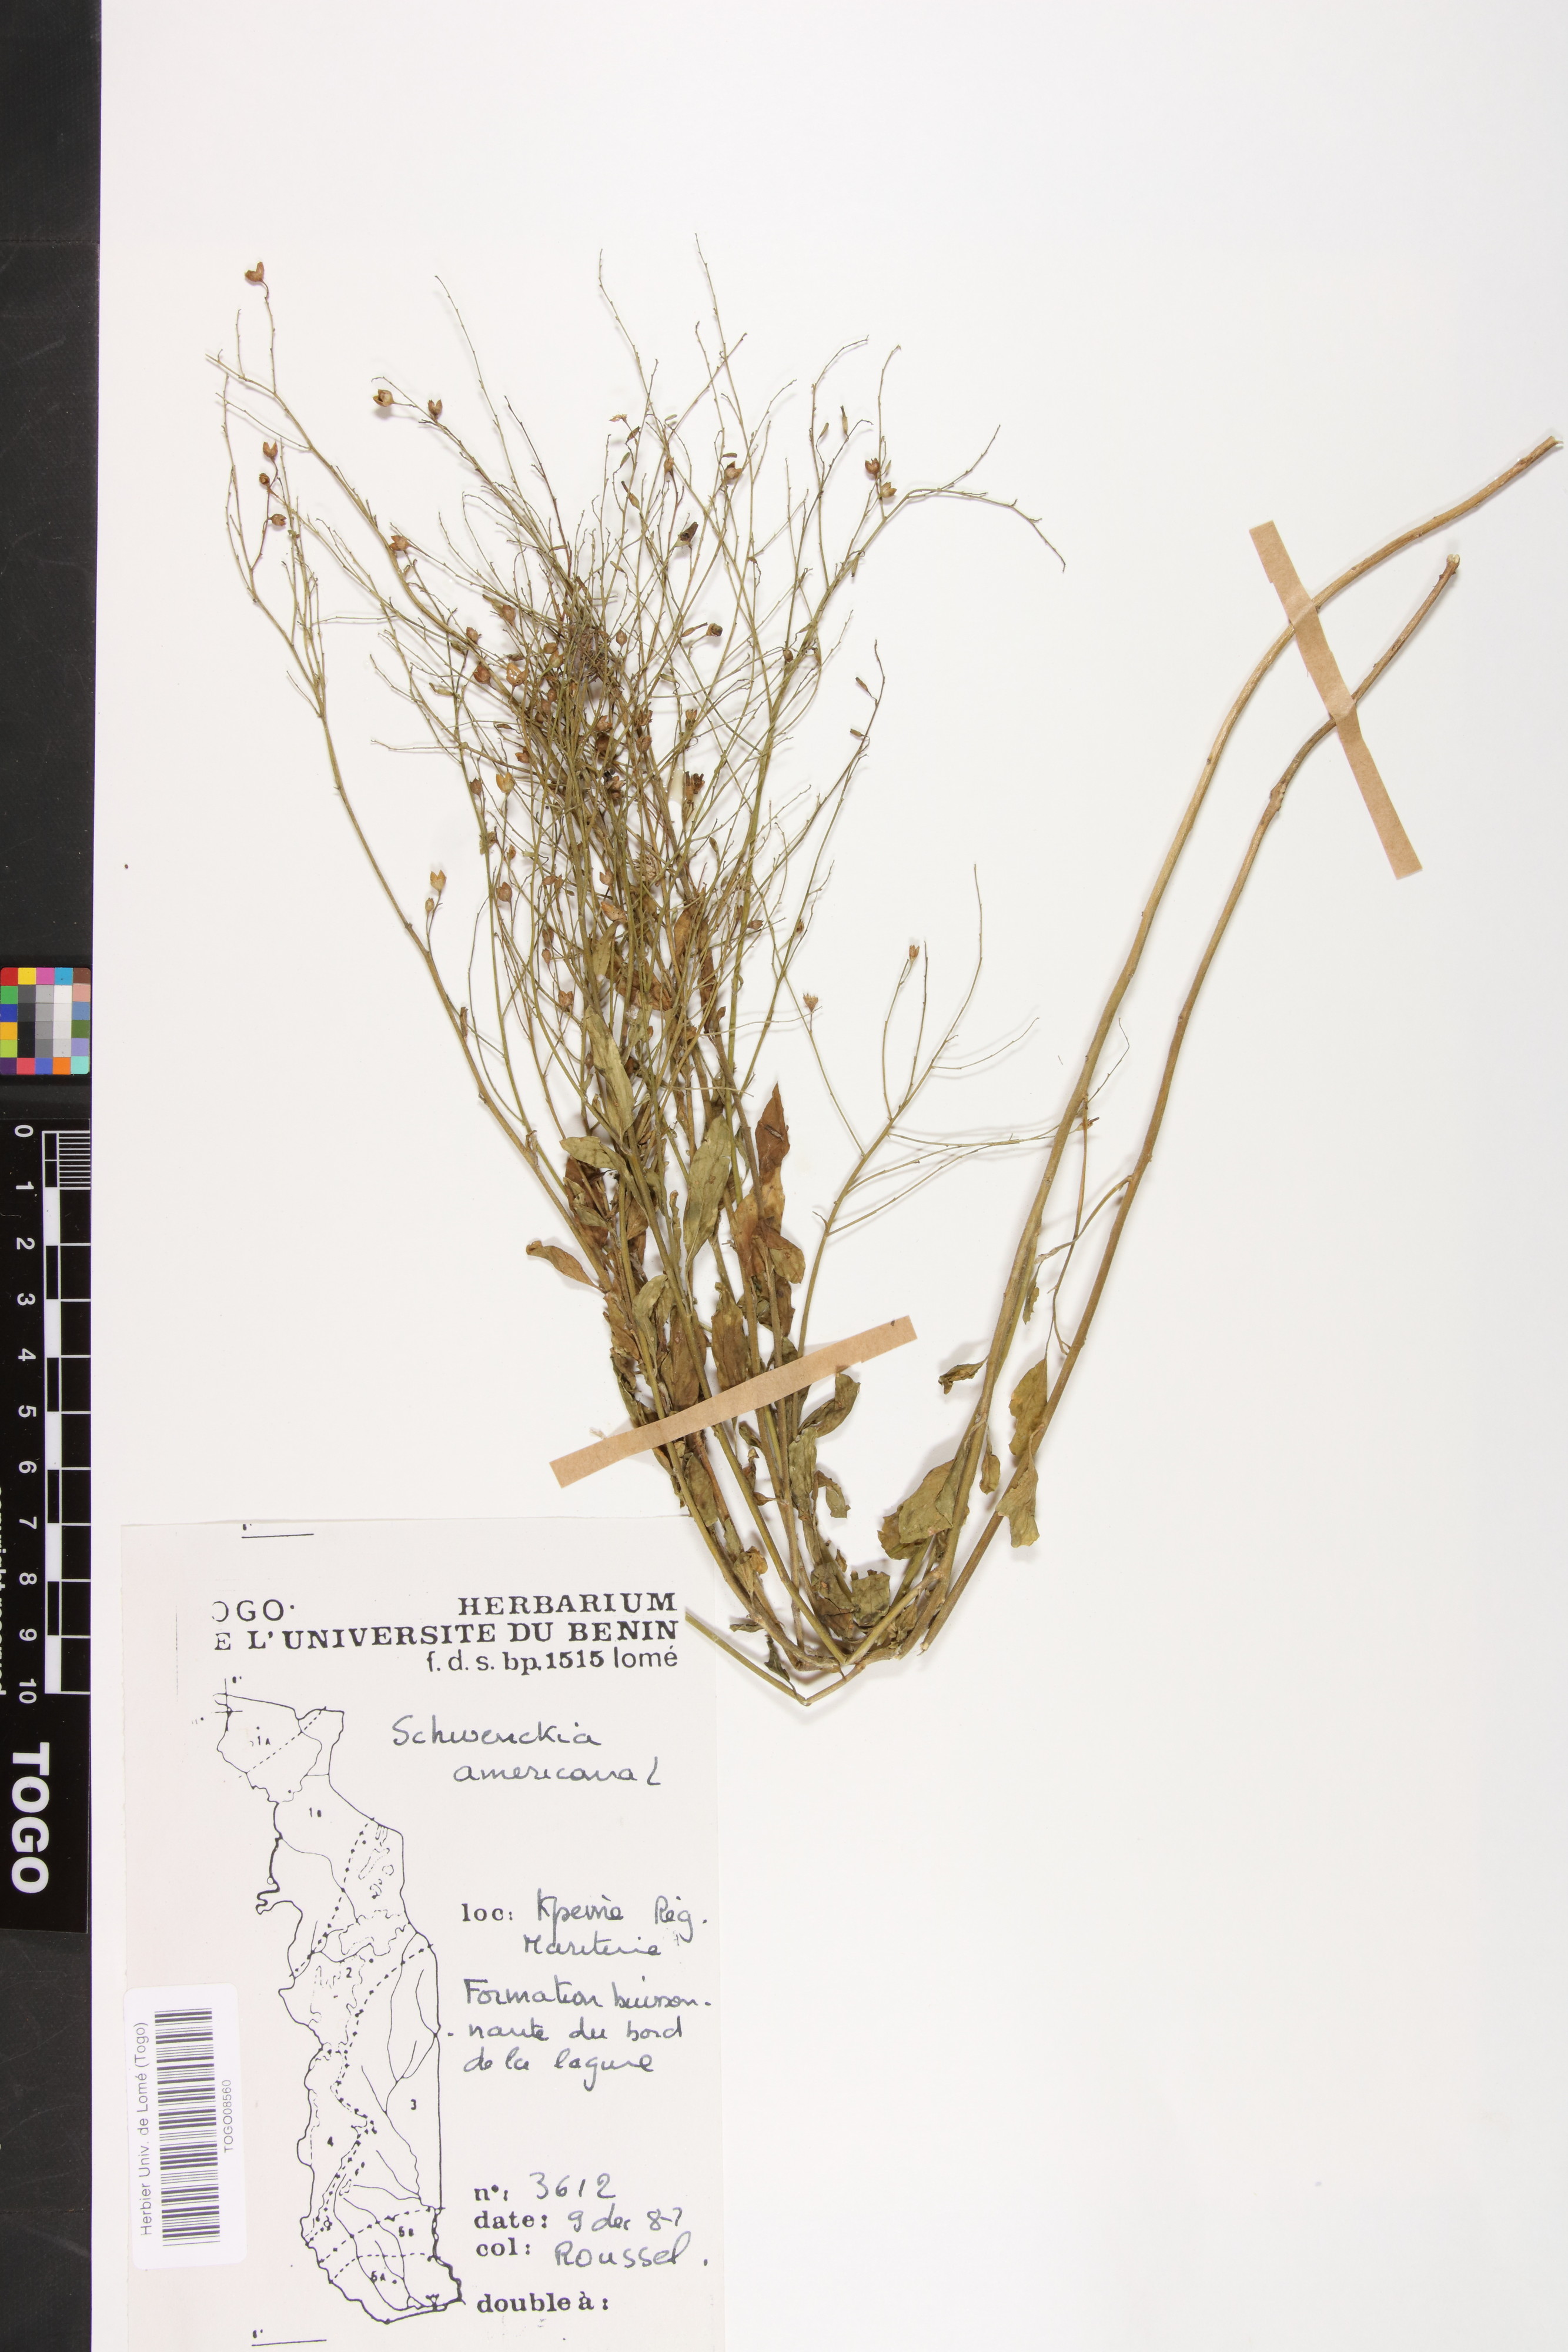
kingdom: Plantae
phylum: Tracheophyta
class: Magnoliopsida
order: Fabales
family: Fabaceae
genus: Senegalia
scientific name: Senegalia polyacantha
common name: Whitethorn
